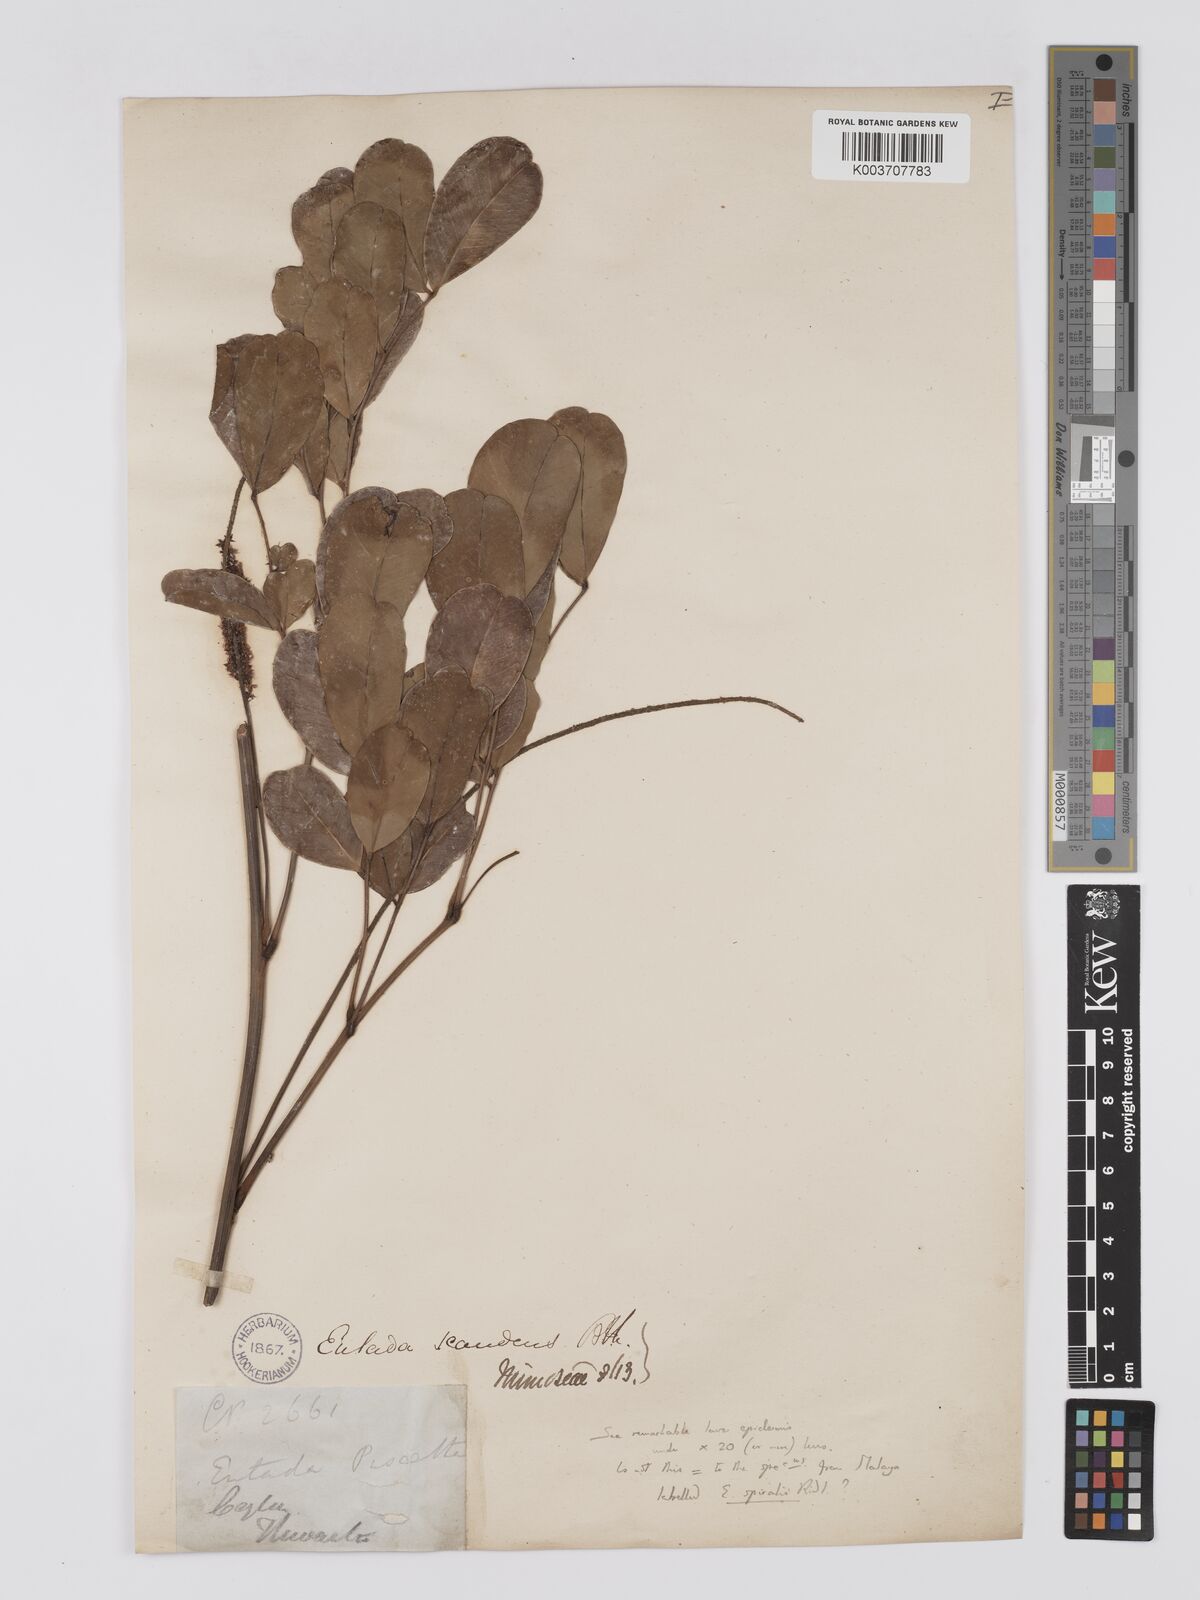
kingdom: Plantae
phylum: Tracheophyta
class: Magnoliopsida
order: Fabales
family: Fabaceae
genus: Entada
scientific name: Entada phaseoloides
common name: Matchbox-bean
